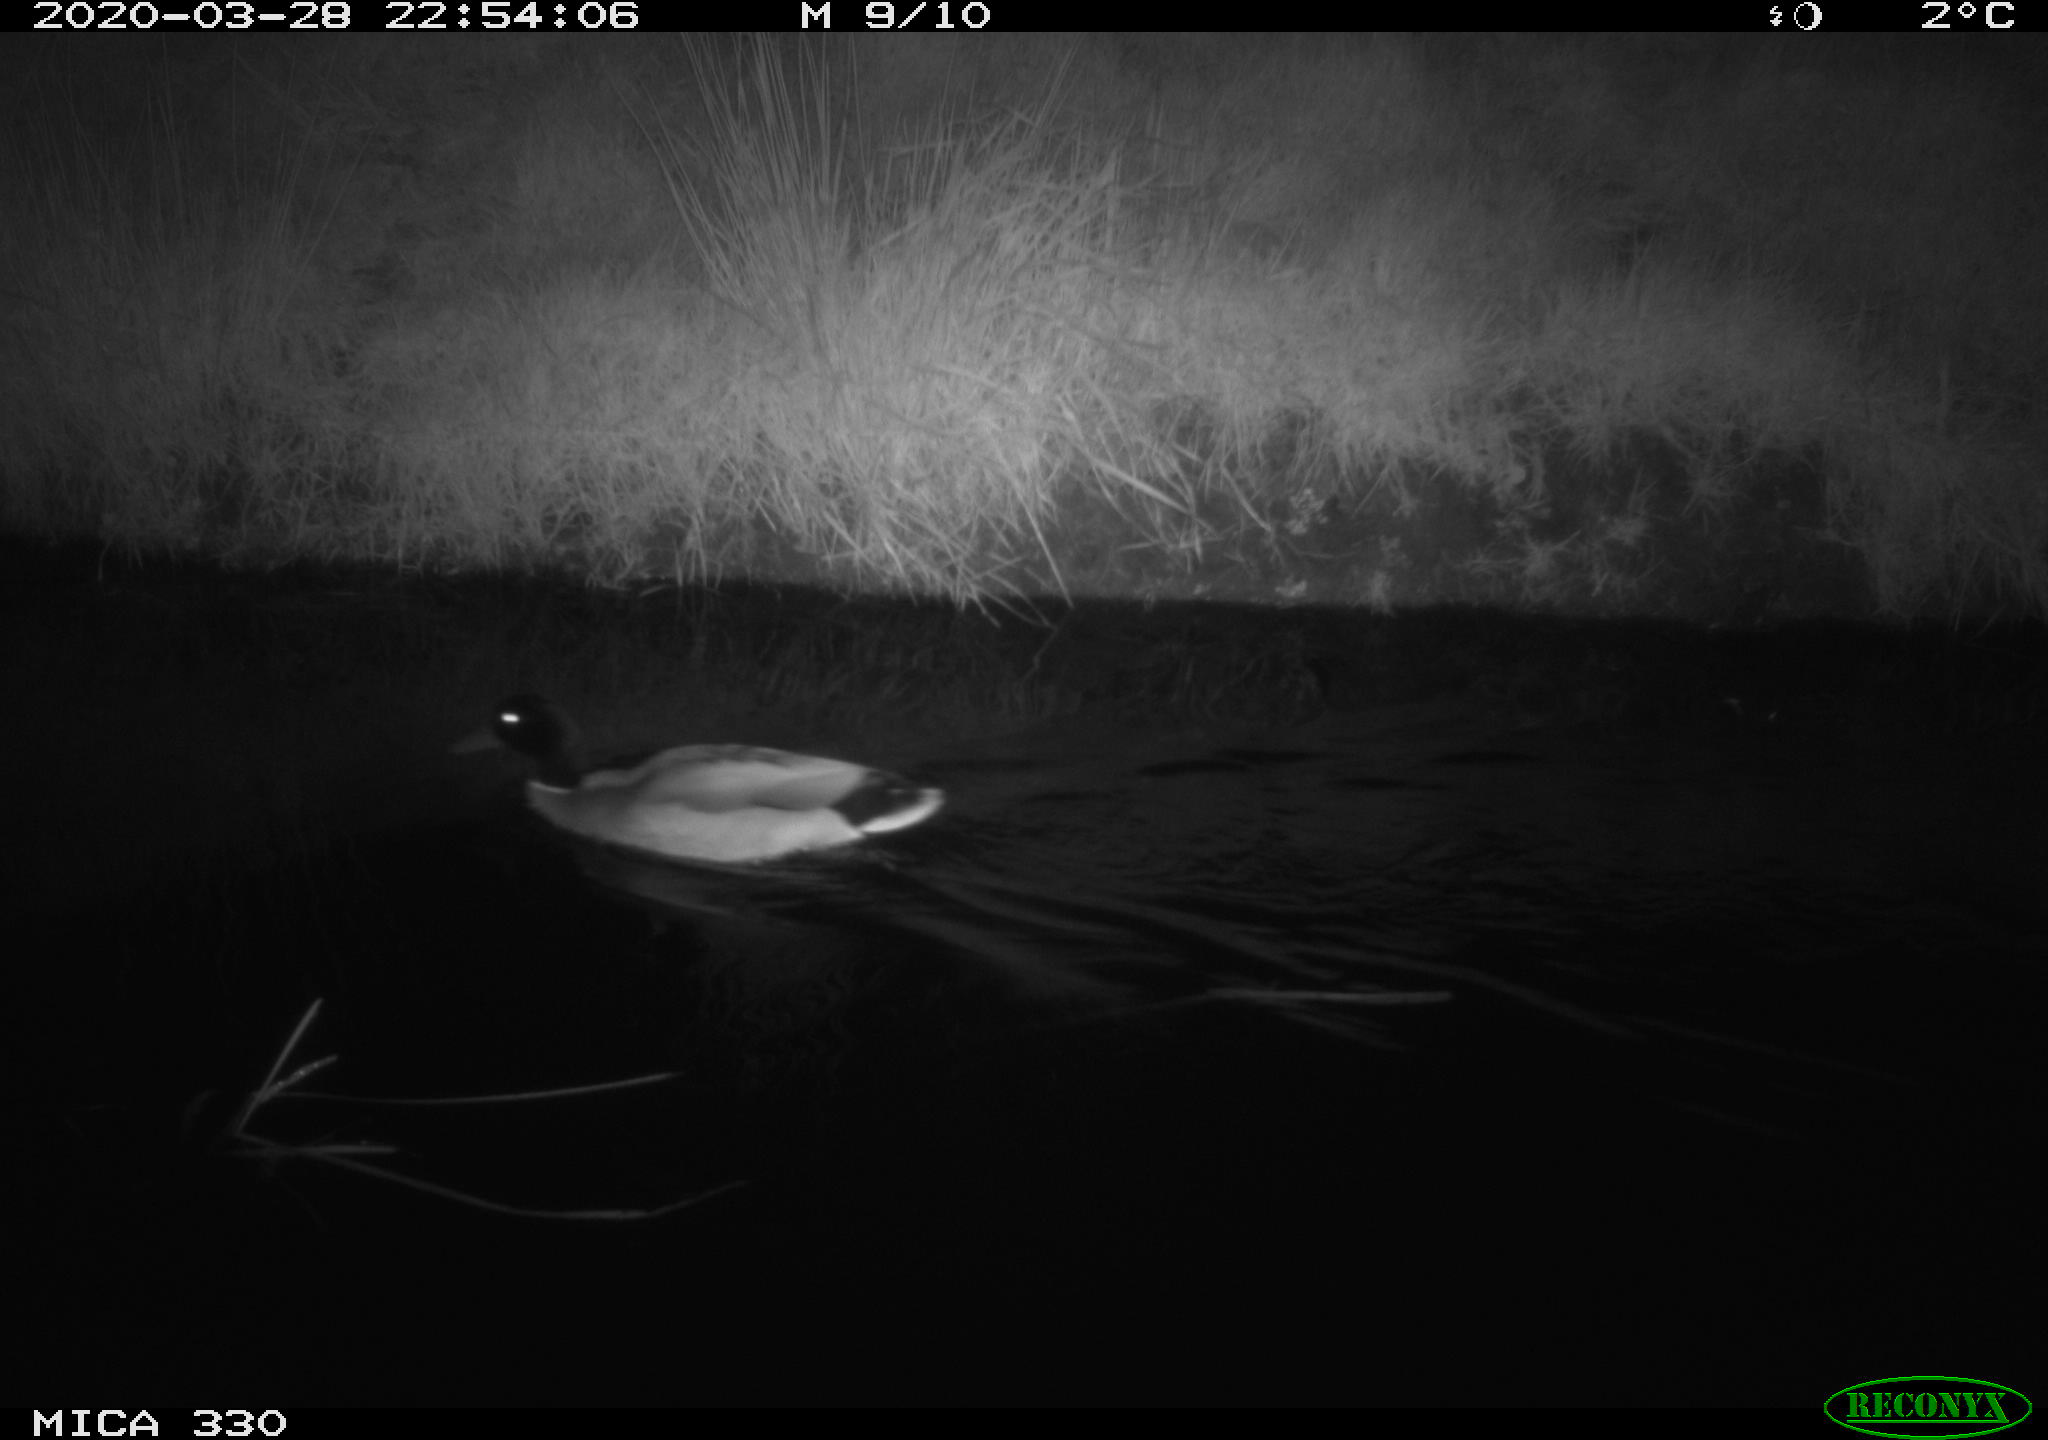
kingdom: Animalia
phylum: Chordata
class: Aves
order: Anseriformes
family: Anatidae
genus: Anas
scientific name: Anas platyrhynchos
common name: Mallard
